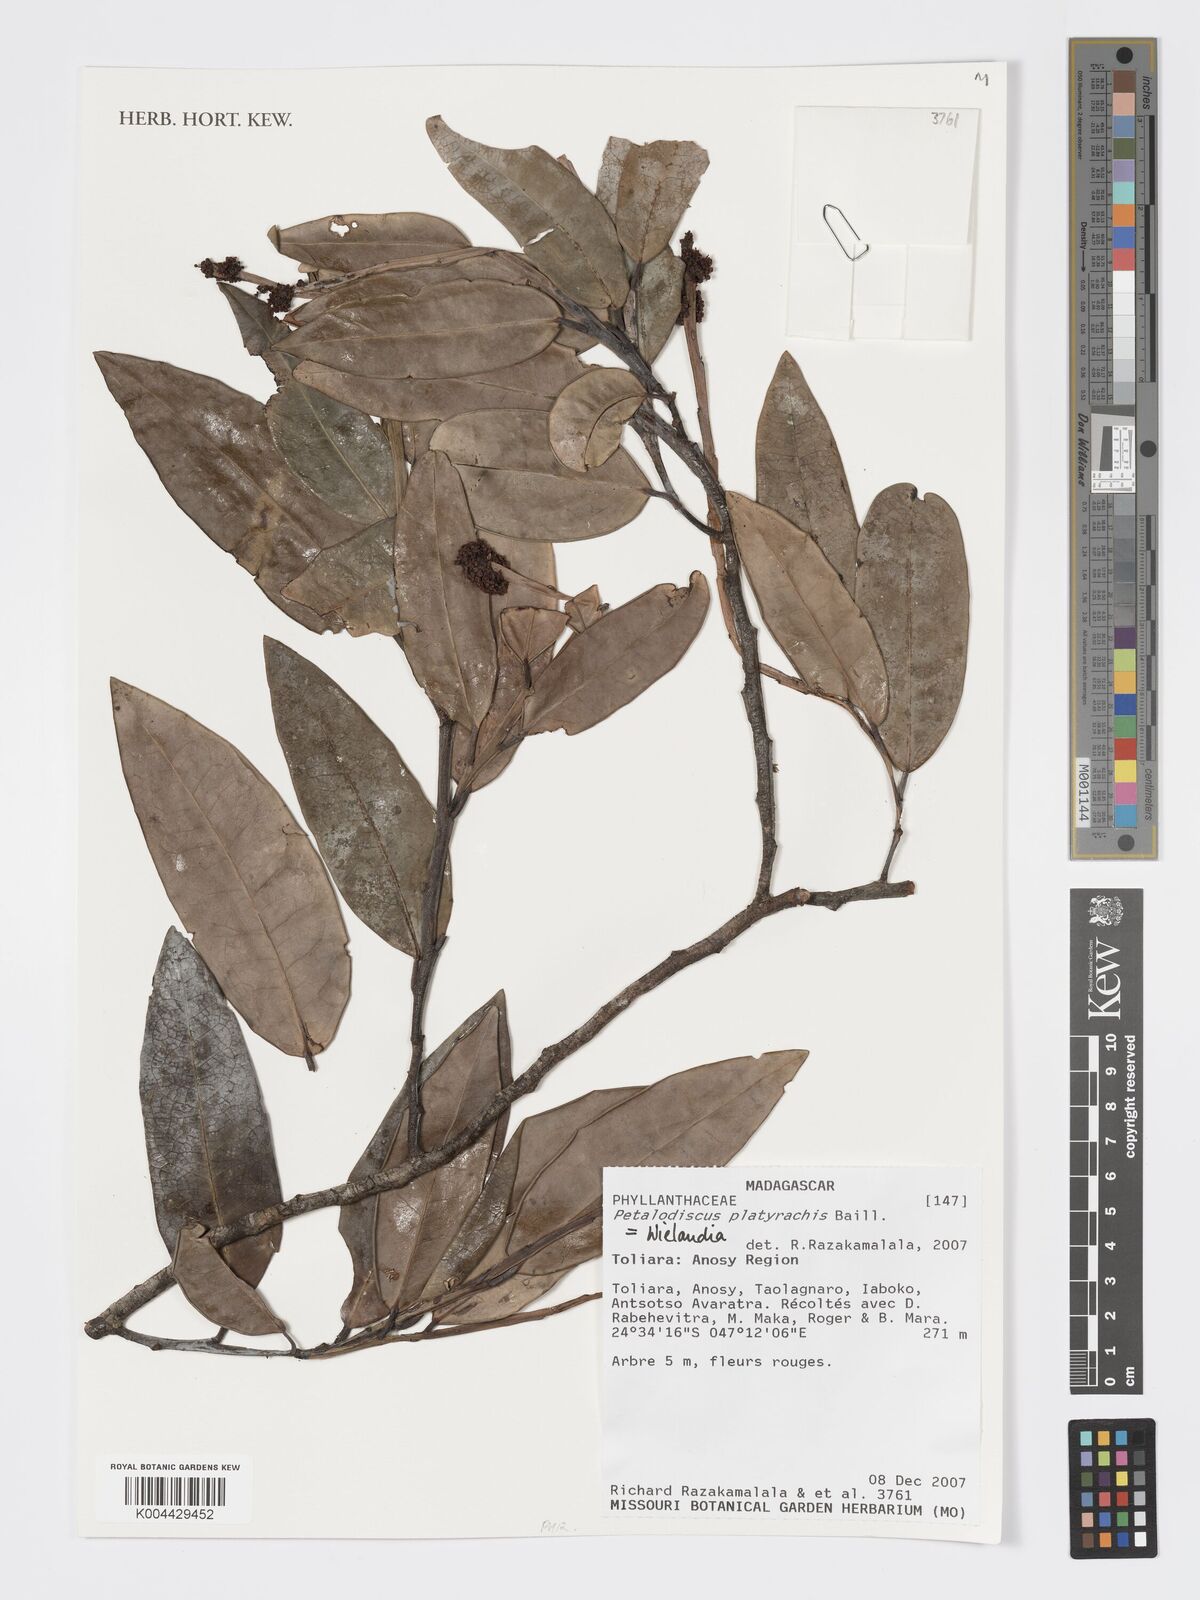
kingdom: Plantae
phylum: Tracheophyta
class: Magnoliopsida
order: Malpighiales
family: Phyllanthaceae
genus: Wielandia
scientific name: Wielandia platyrachis
